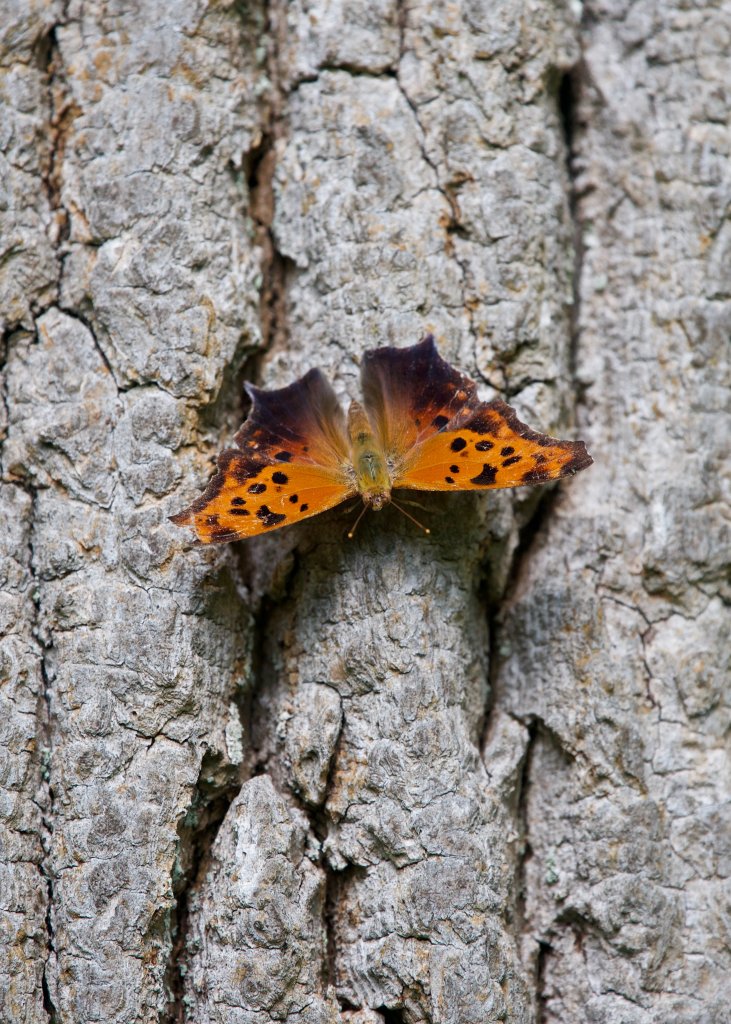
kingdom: Animalia
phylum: Arthropoda
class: Insecta
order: Lepidoptera
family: Nymphalidae
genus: Polygonia
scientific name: Polygonia interrogationis
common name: Question Mark
